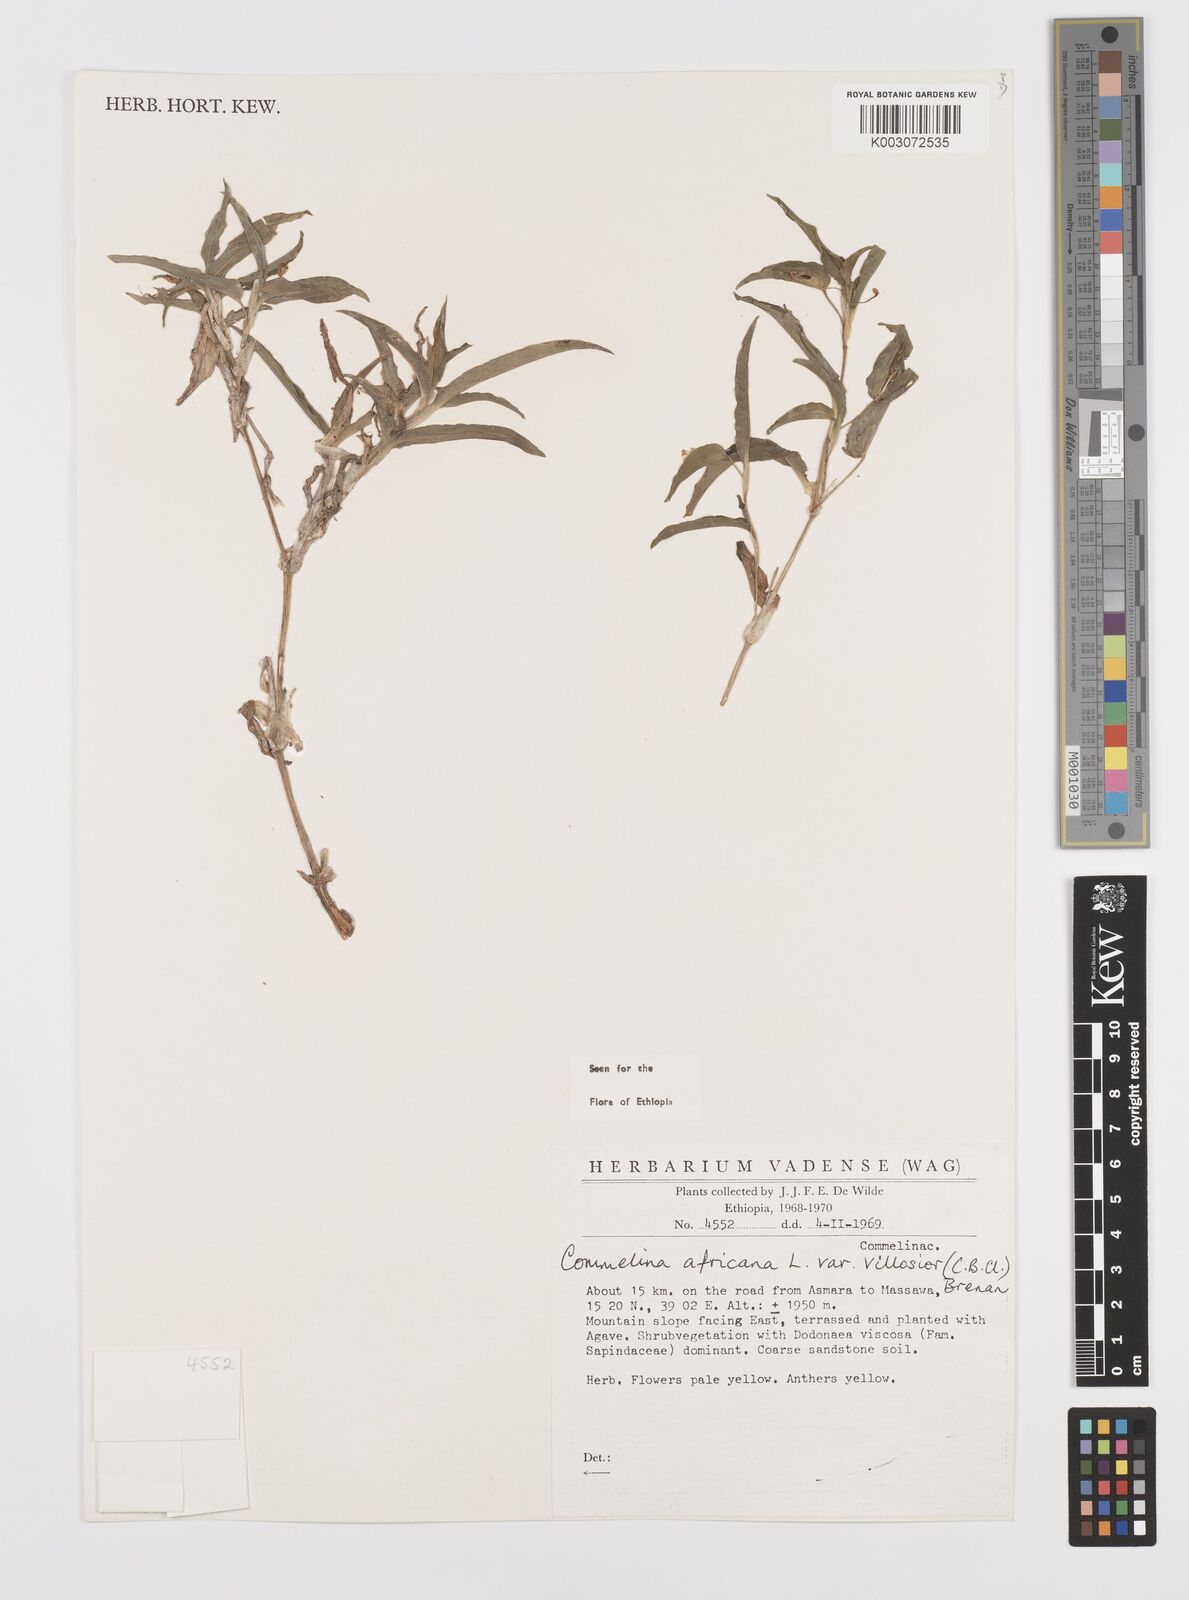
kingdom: Plantae
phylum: Tracheophyta
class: Liliopsida
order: Commelinales
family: Commelinaceae
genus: Commelina
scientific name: Commelina africana
